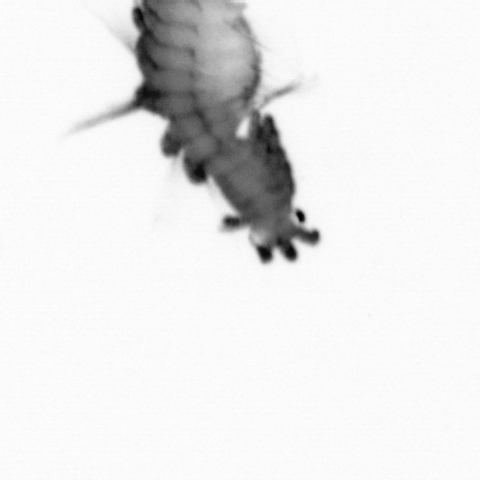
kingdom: Animalia
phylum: Annelida
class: Polychaeta
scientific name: Polychaeta
